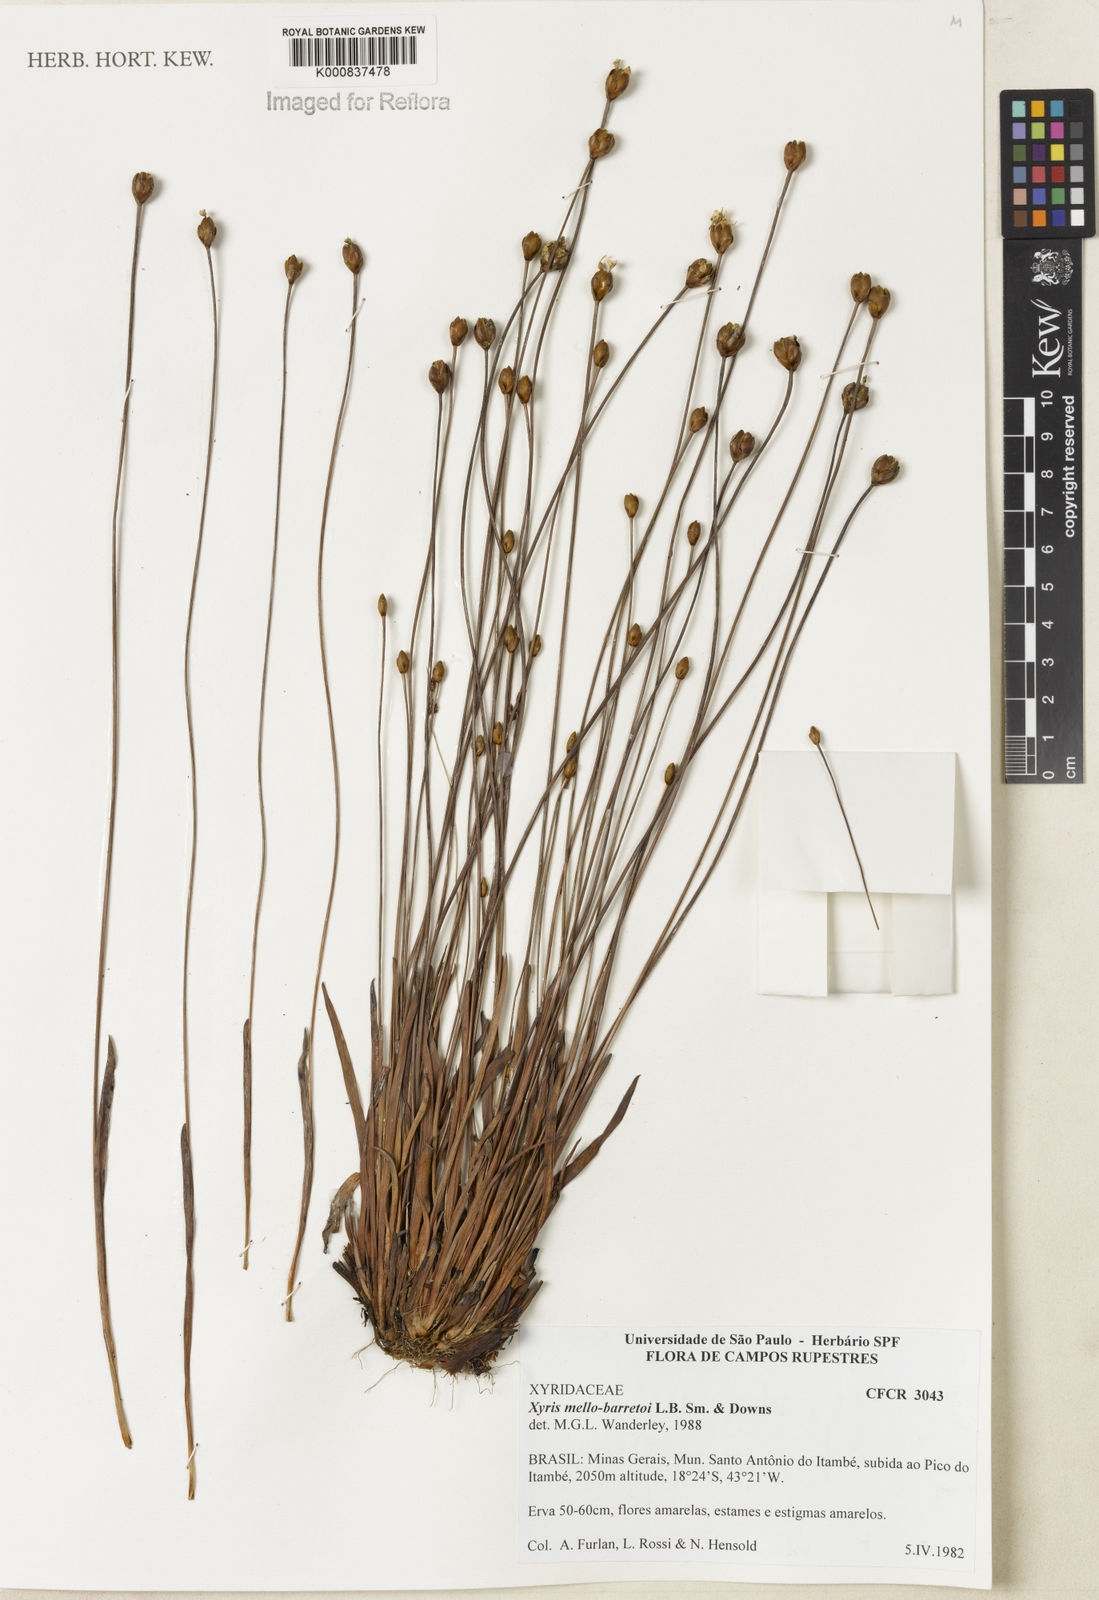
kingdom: Plantae
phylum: Tracheophyta
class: Liliopsida
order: Poales
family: Xyridaceae
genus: Xyris
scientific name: Xyris mello-barretoi
